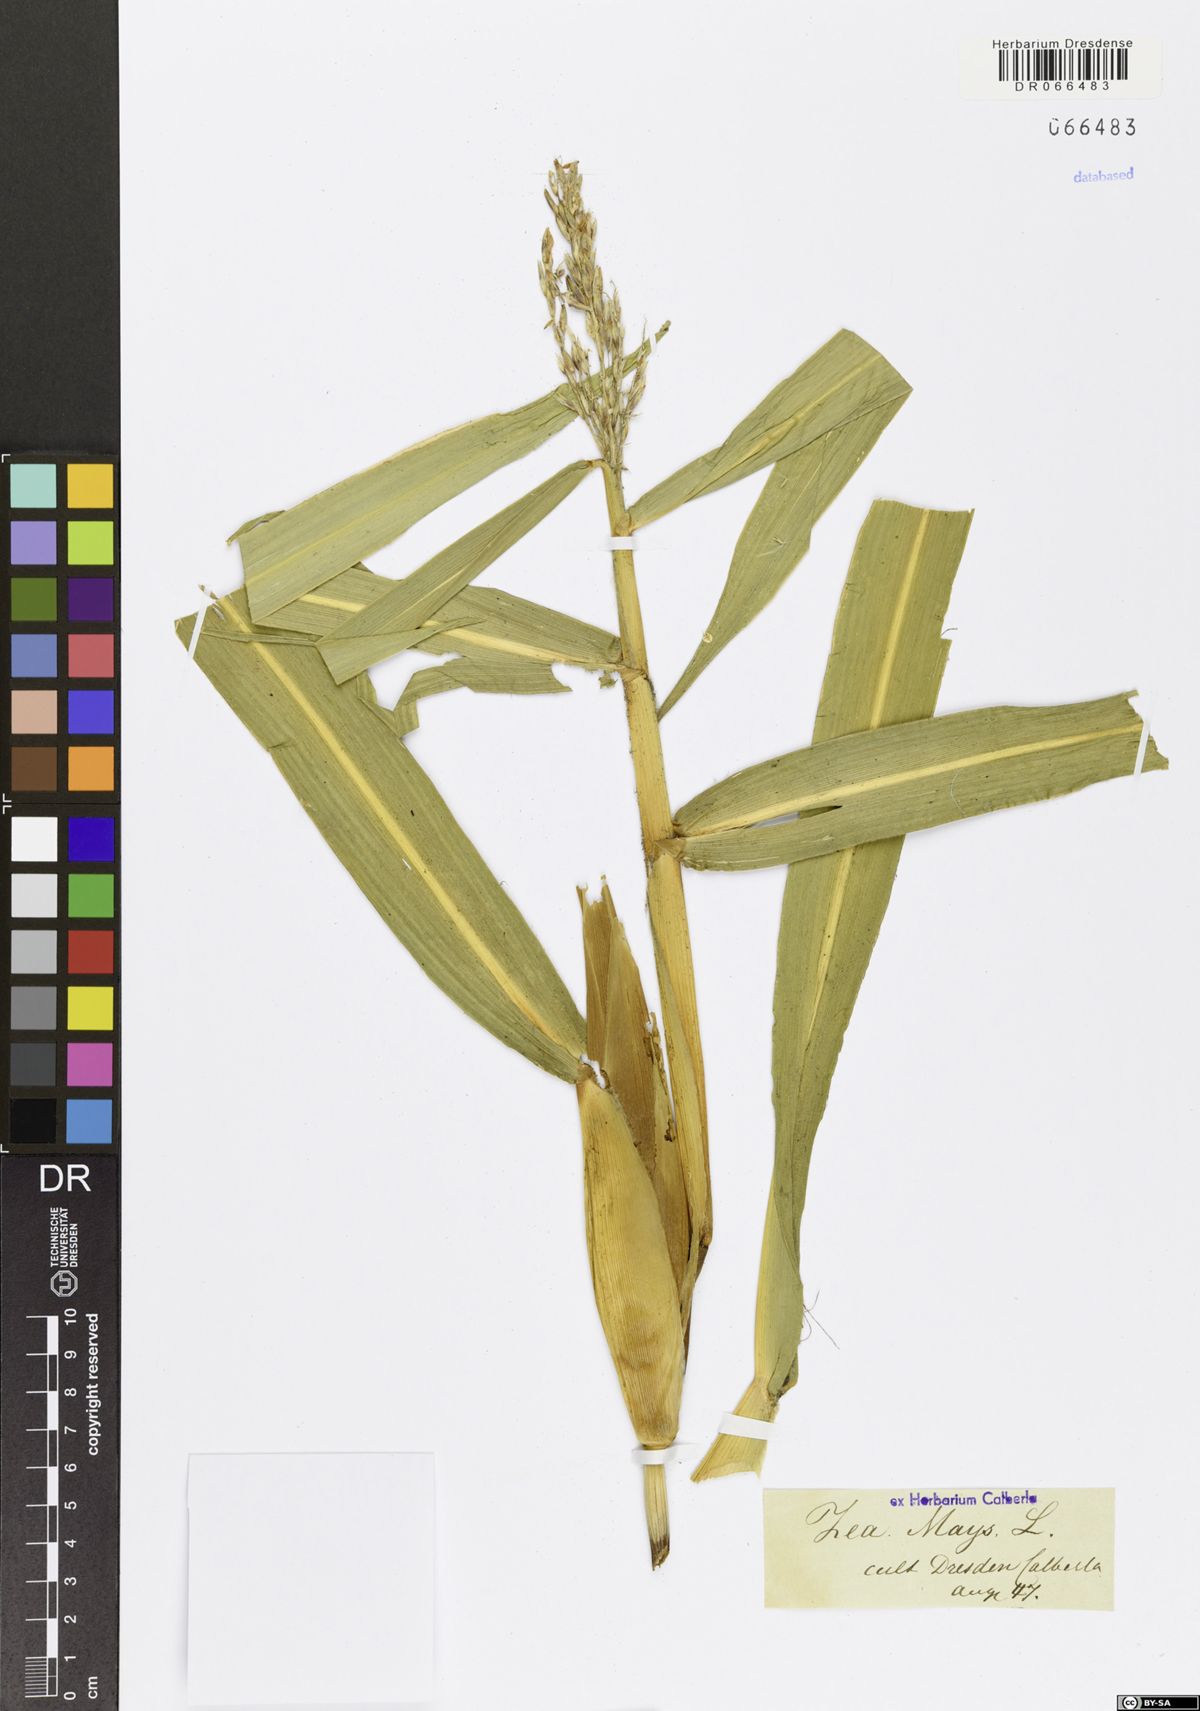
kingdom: Plantae
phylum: Tracheophyta
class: Liliopsida
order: Poales
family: Poaceae
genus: Zea
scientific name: Zea mays
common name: Maize
